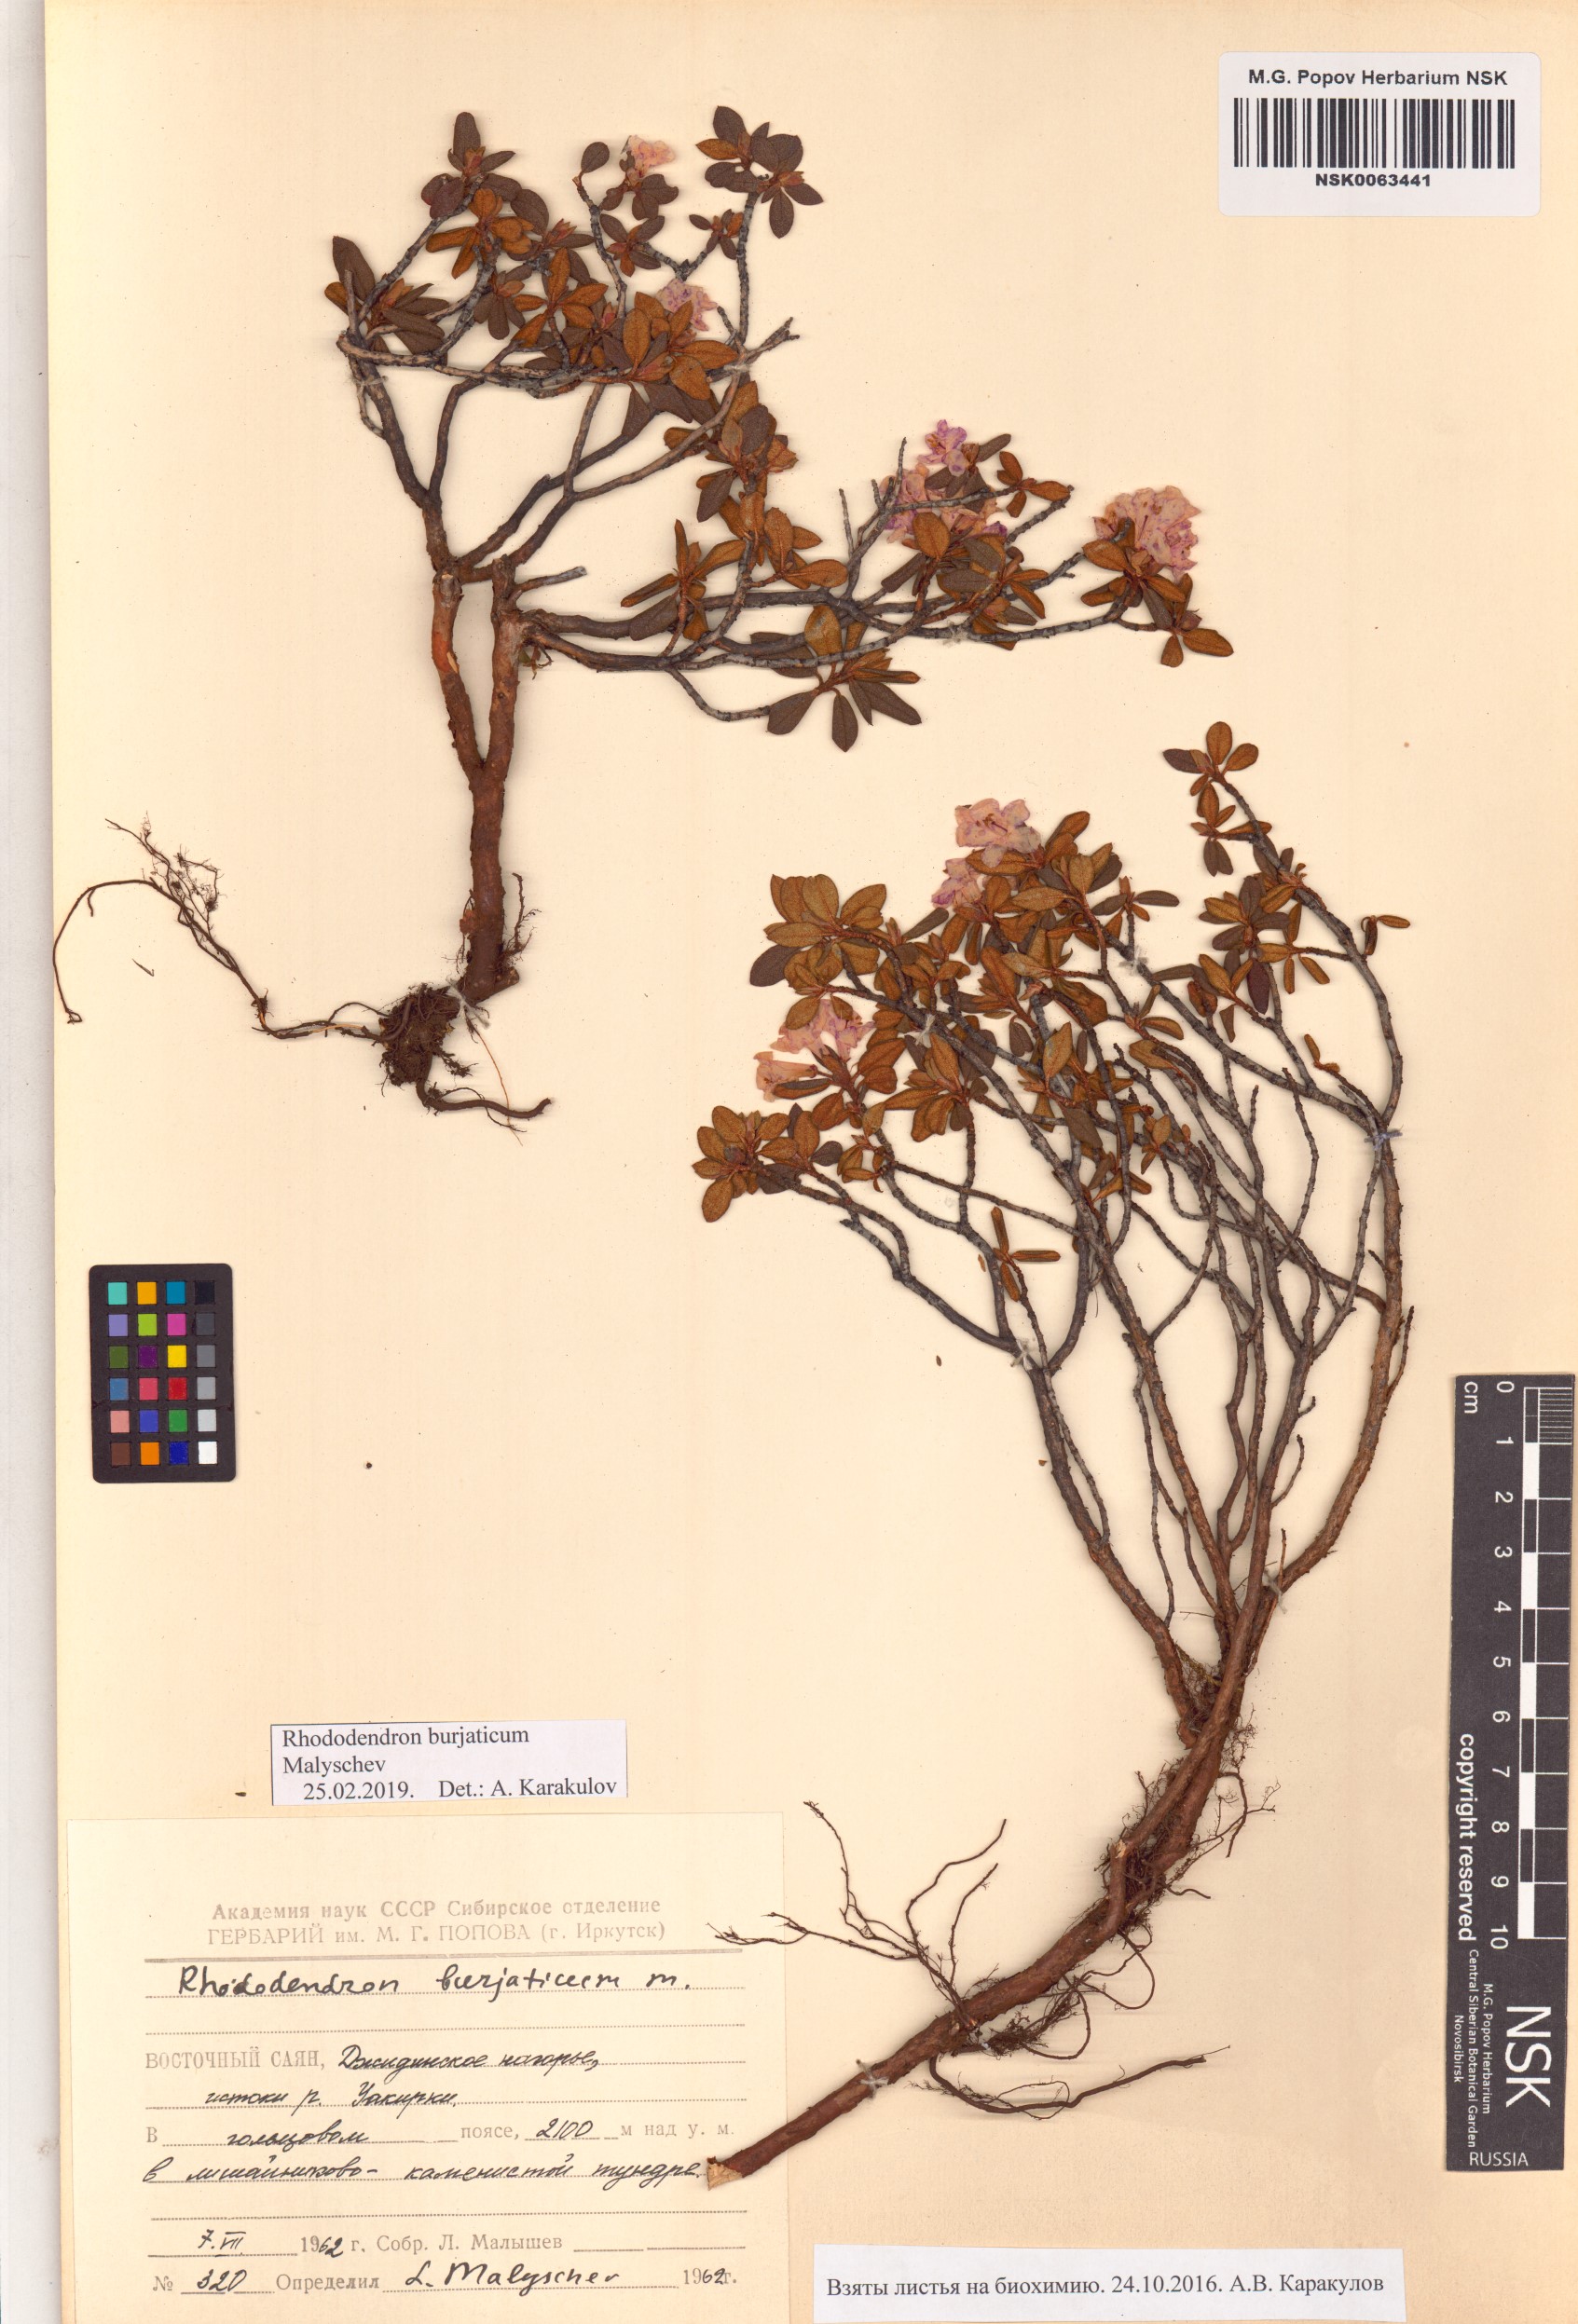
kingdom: Plantae
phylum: Tracheophyta
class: Magnoliopsida
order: Ericales
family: Ericaceae
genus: Rhododendron
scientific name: Rhododendron burjaticum
